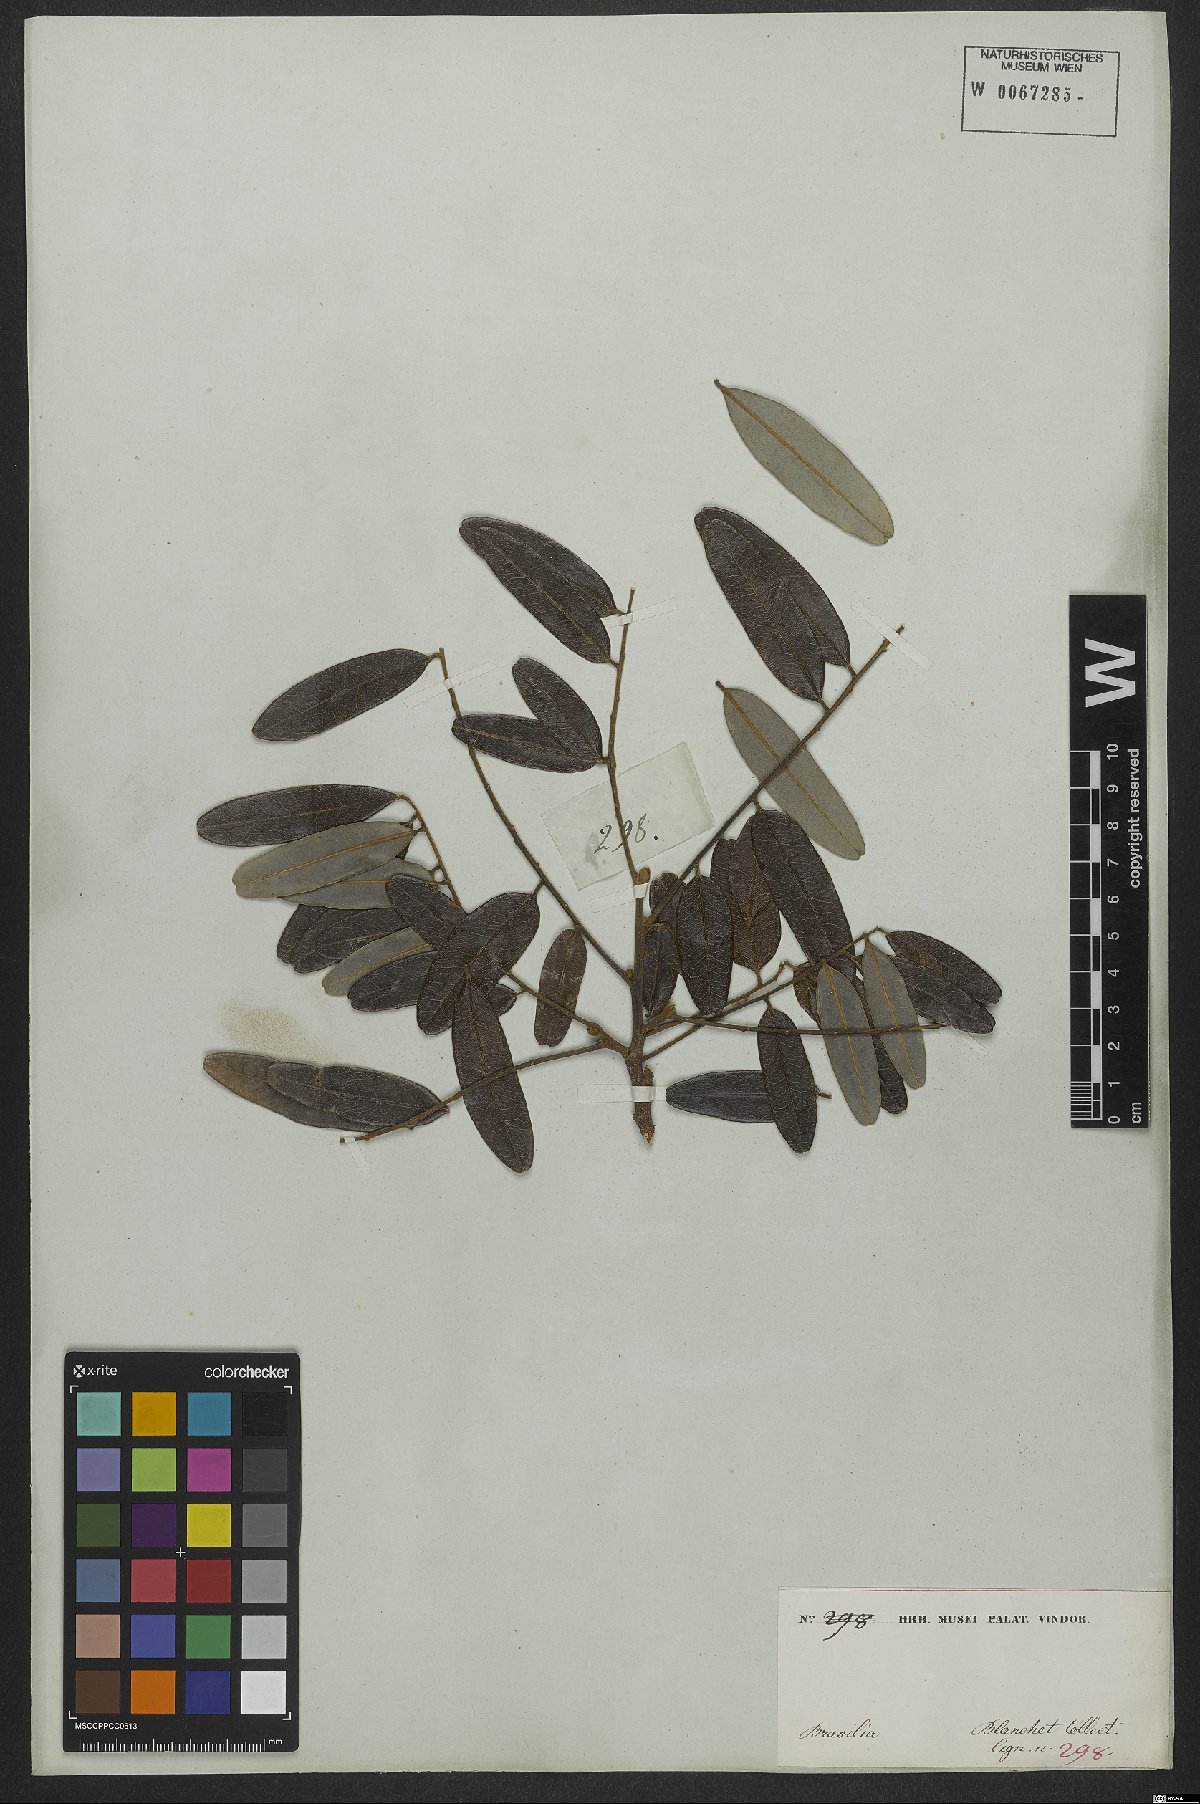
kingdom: Plantae
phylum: Tracheophyta
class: Magnoliopsida
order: Fabales
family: Fabaceae
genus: Bowdichia
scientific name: Bowdichia virgilioides
